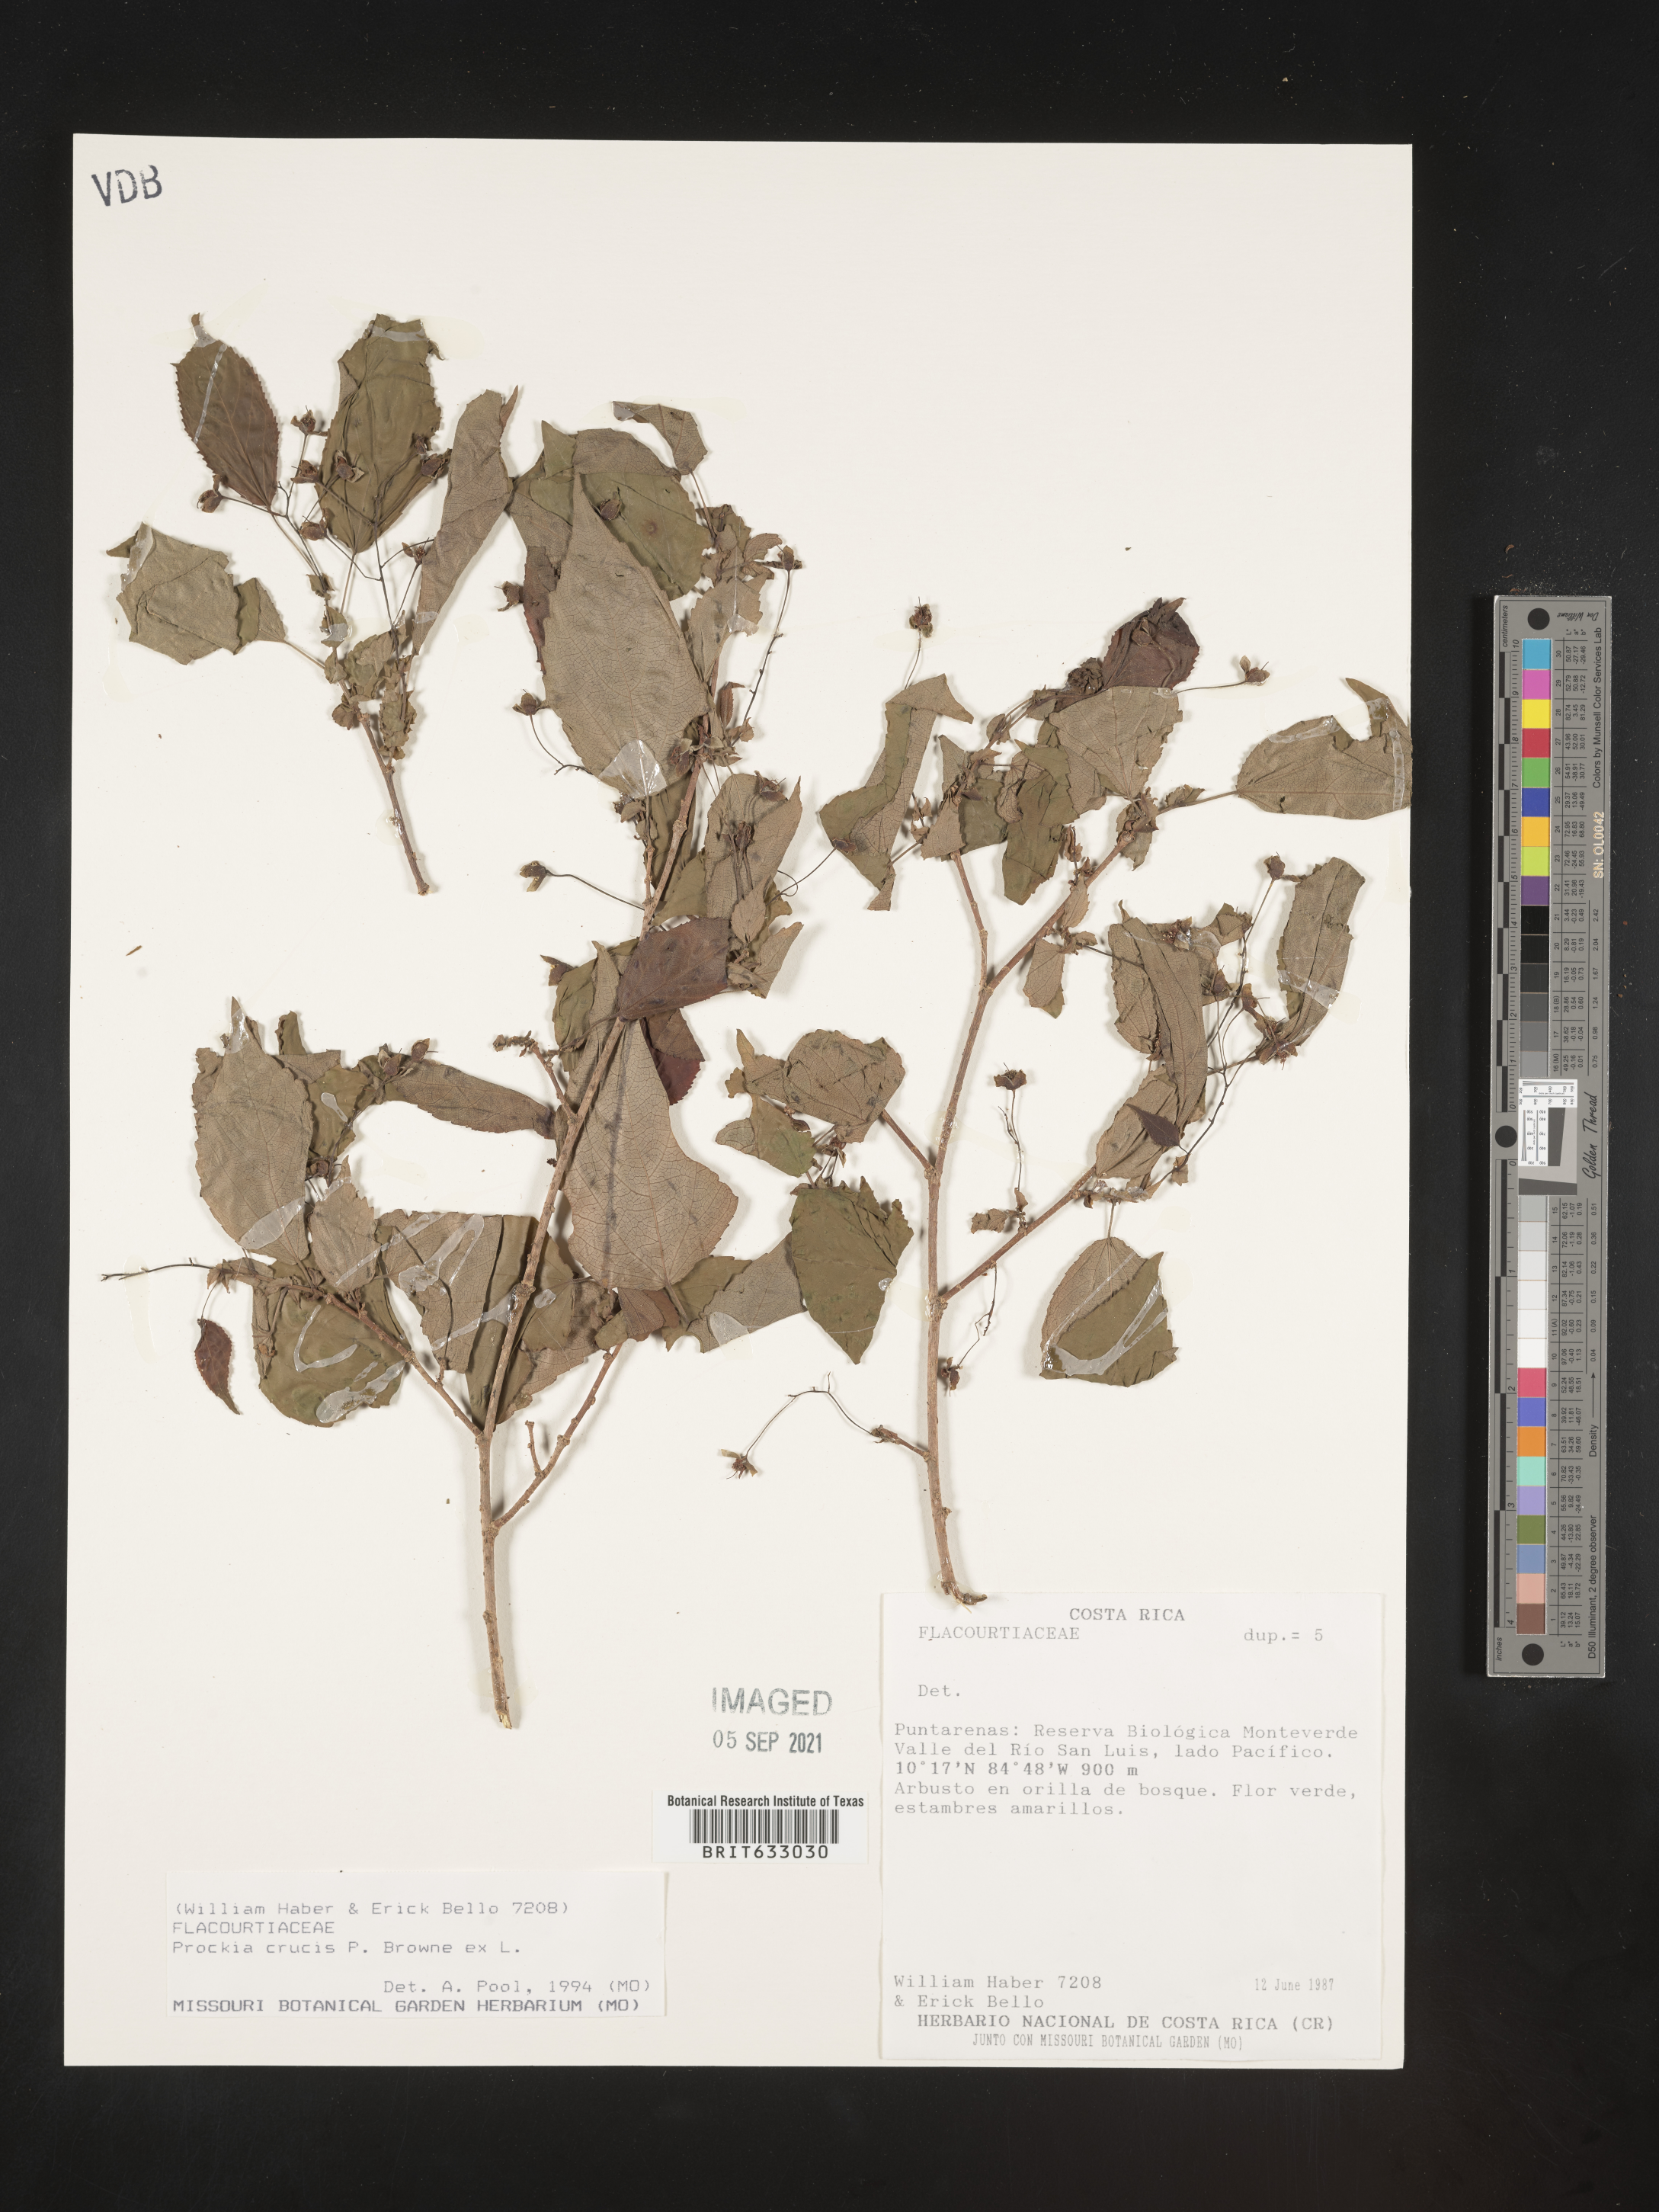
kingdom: Plantae
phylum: Tracheophyta
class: Magnoliopsida
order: Malpighiales
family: Salicaceae
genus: Prockia
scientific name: Prockia
